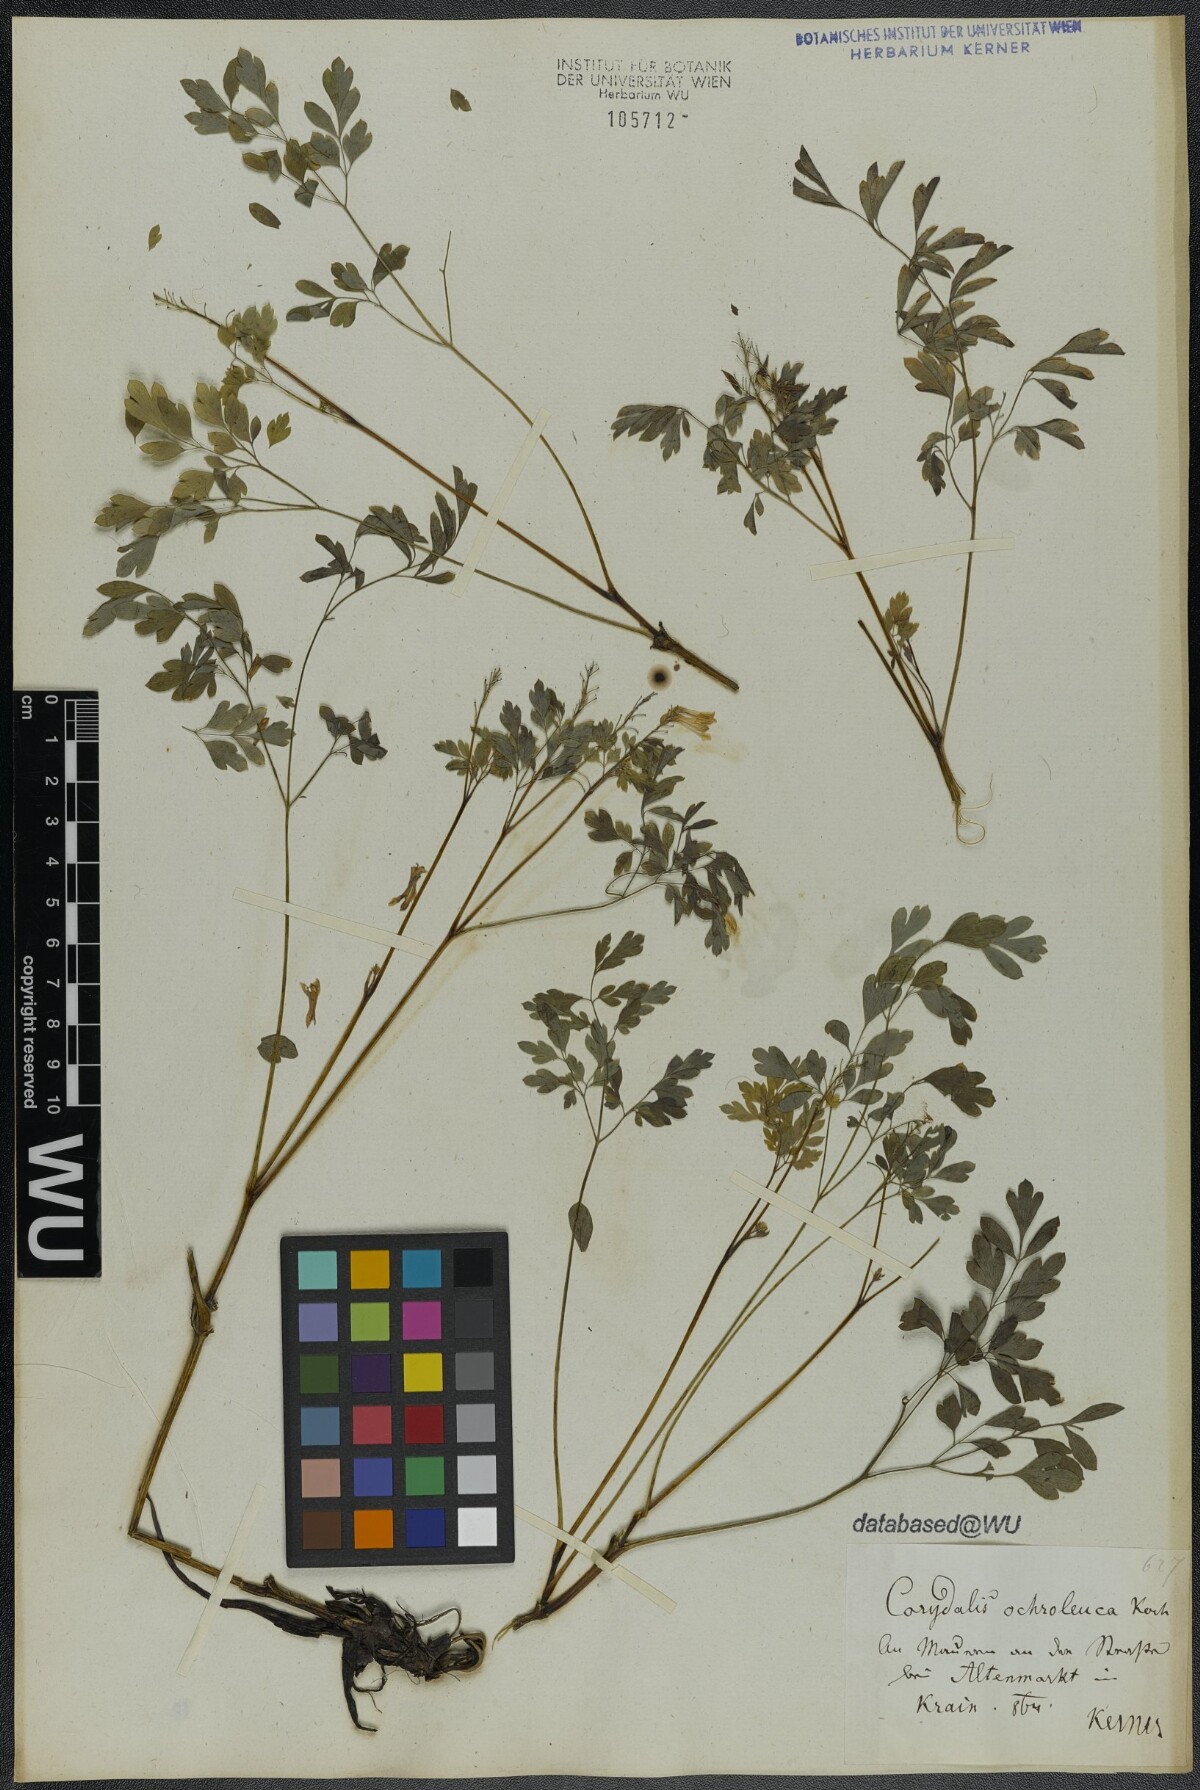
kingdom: Plantae
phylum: Tracheophyta
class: Magnoliopsida
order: Ranunculales
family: Papaveraceae
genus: Pseudofumaria
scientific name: Pseudofumaria alba
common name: Pale corydalis
